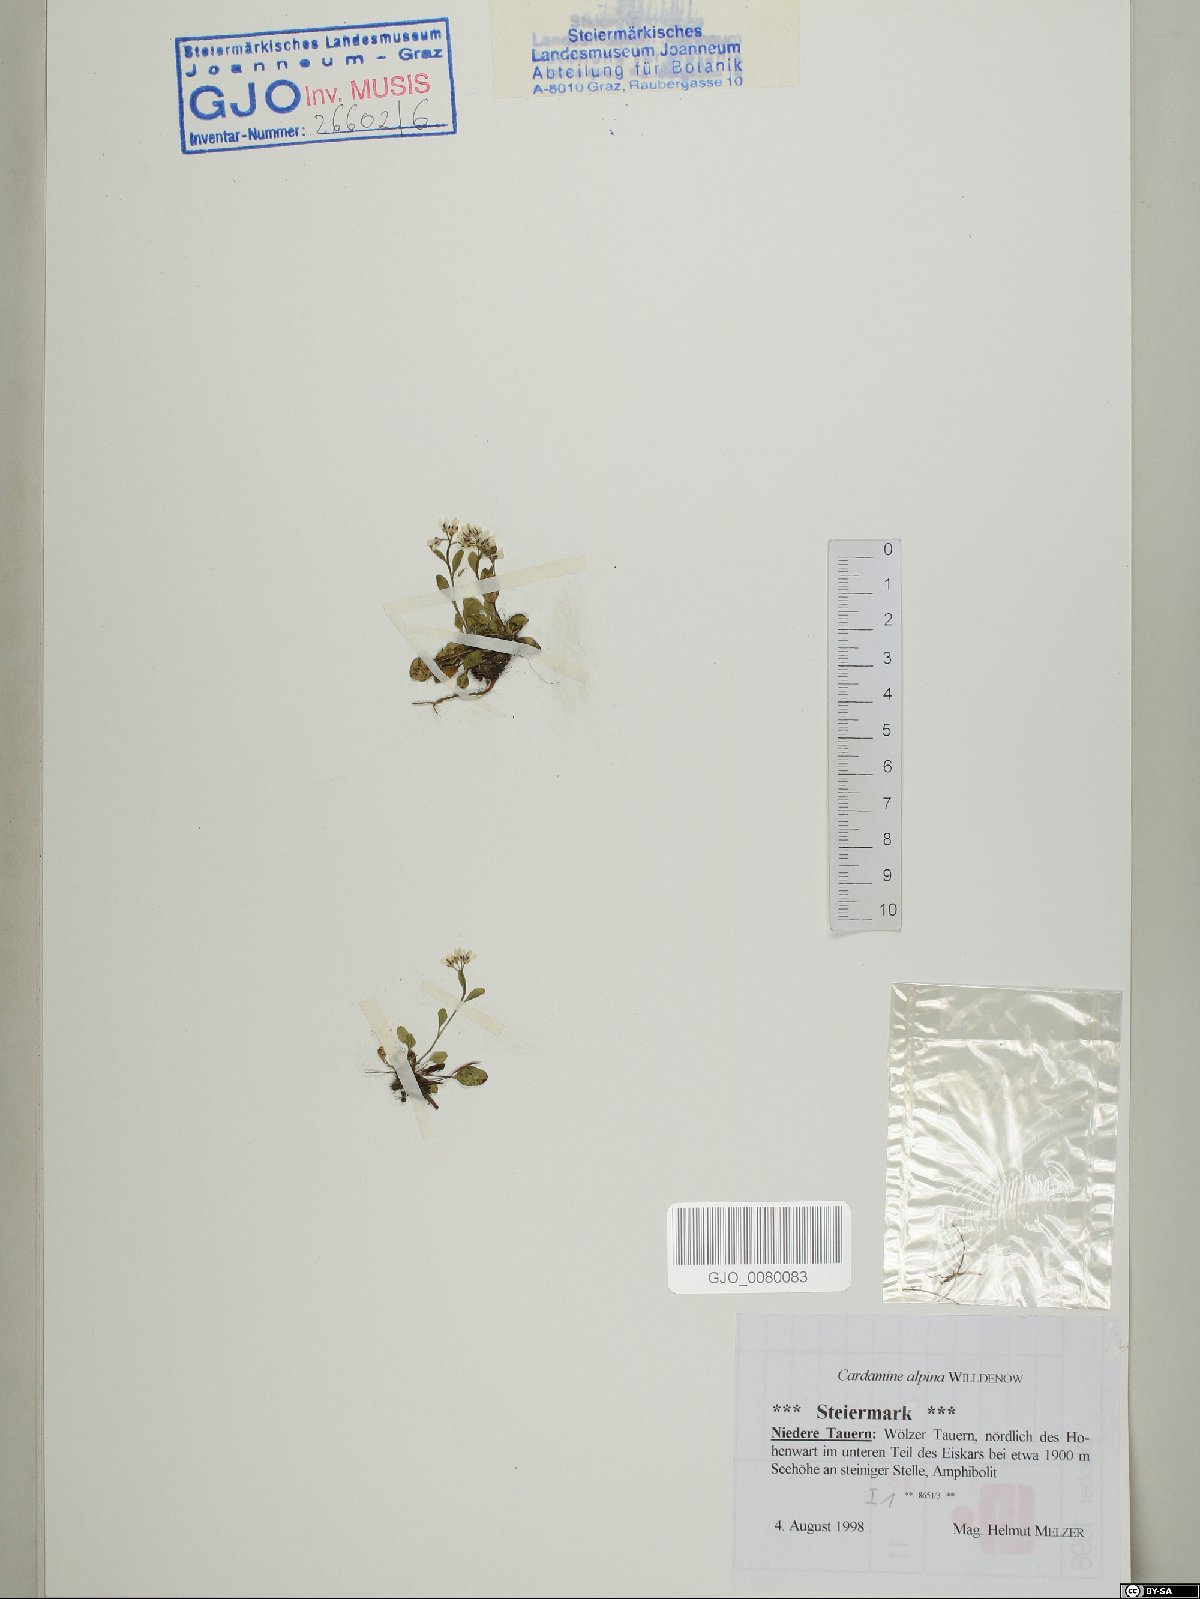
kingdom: Plantae
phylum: Tracheophyta
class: Magnoliopsida
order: Brassicales
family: Brassicaceae
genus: Cardamine
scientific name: Cardamine bellidifolia
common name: Alpine bittercress
